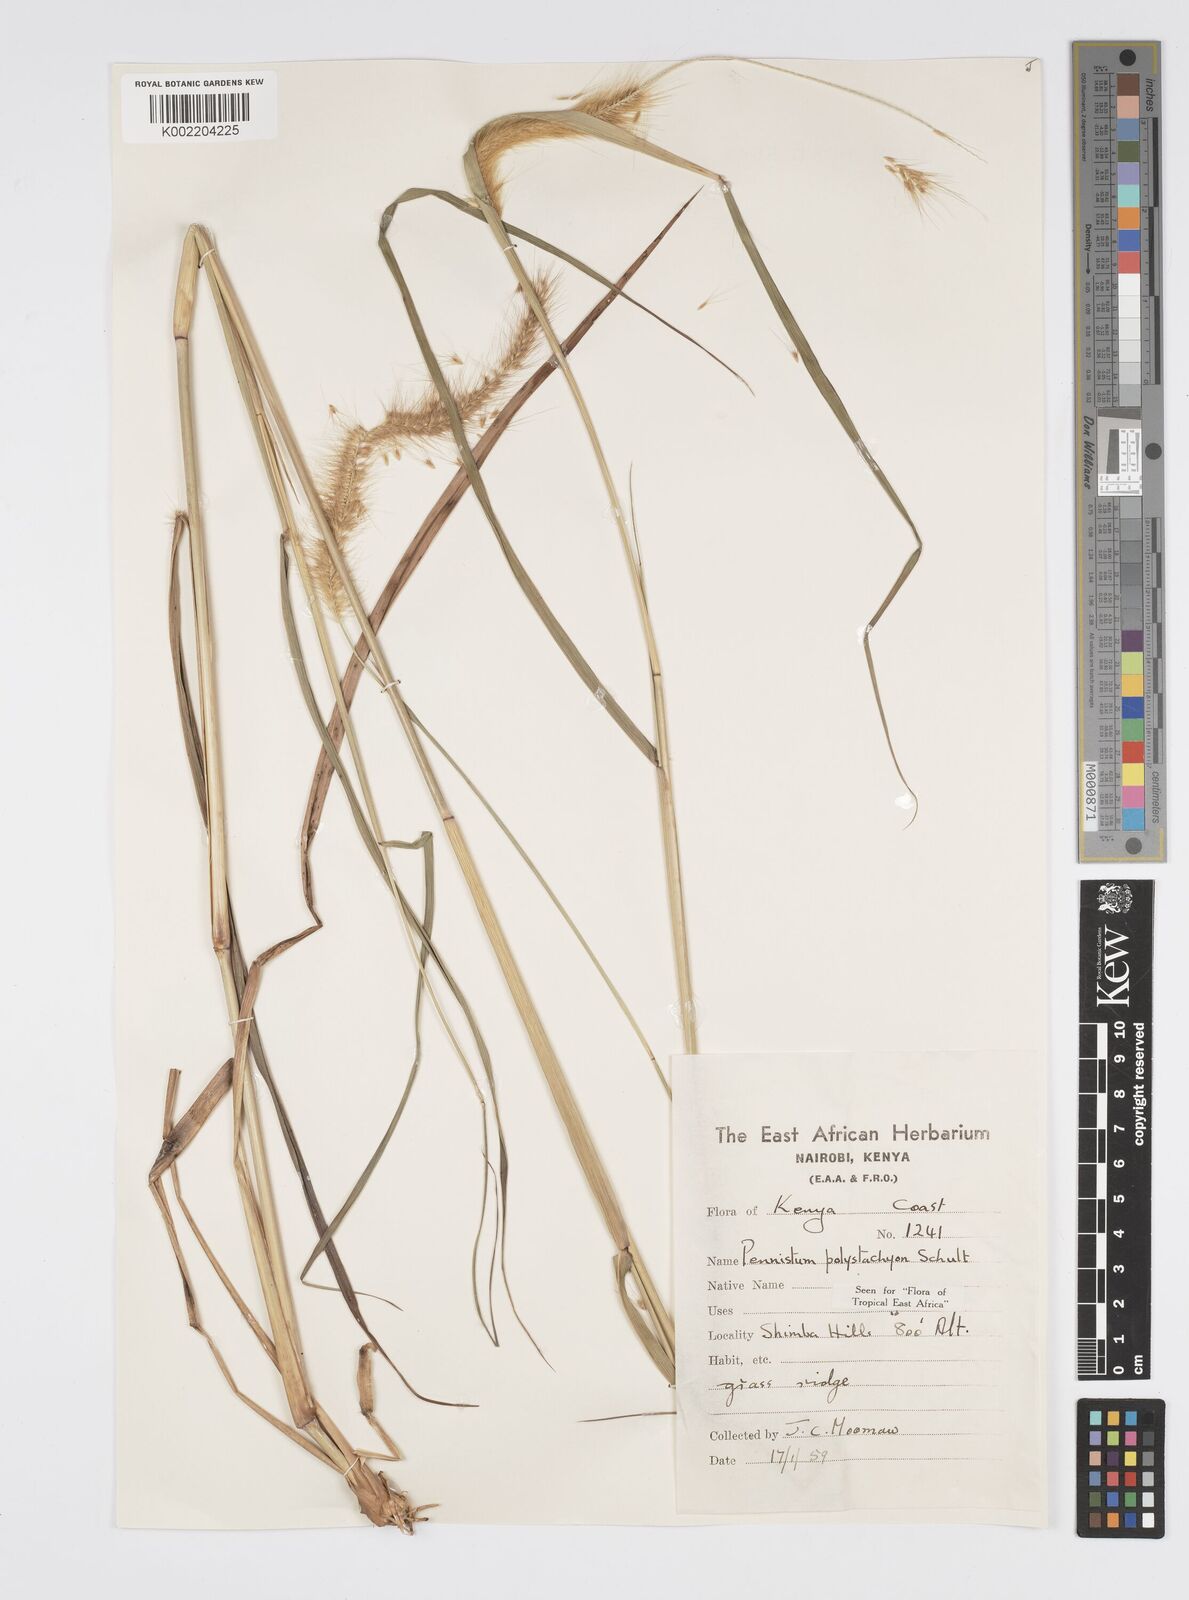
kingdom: Plantae
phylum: Tracheophyta
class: Liliopsida
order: Poales
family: Poaceae
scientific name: Poaceae
